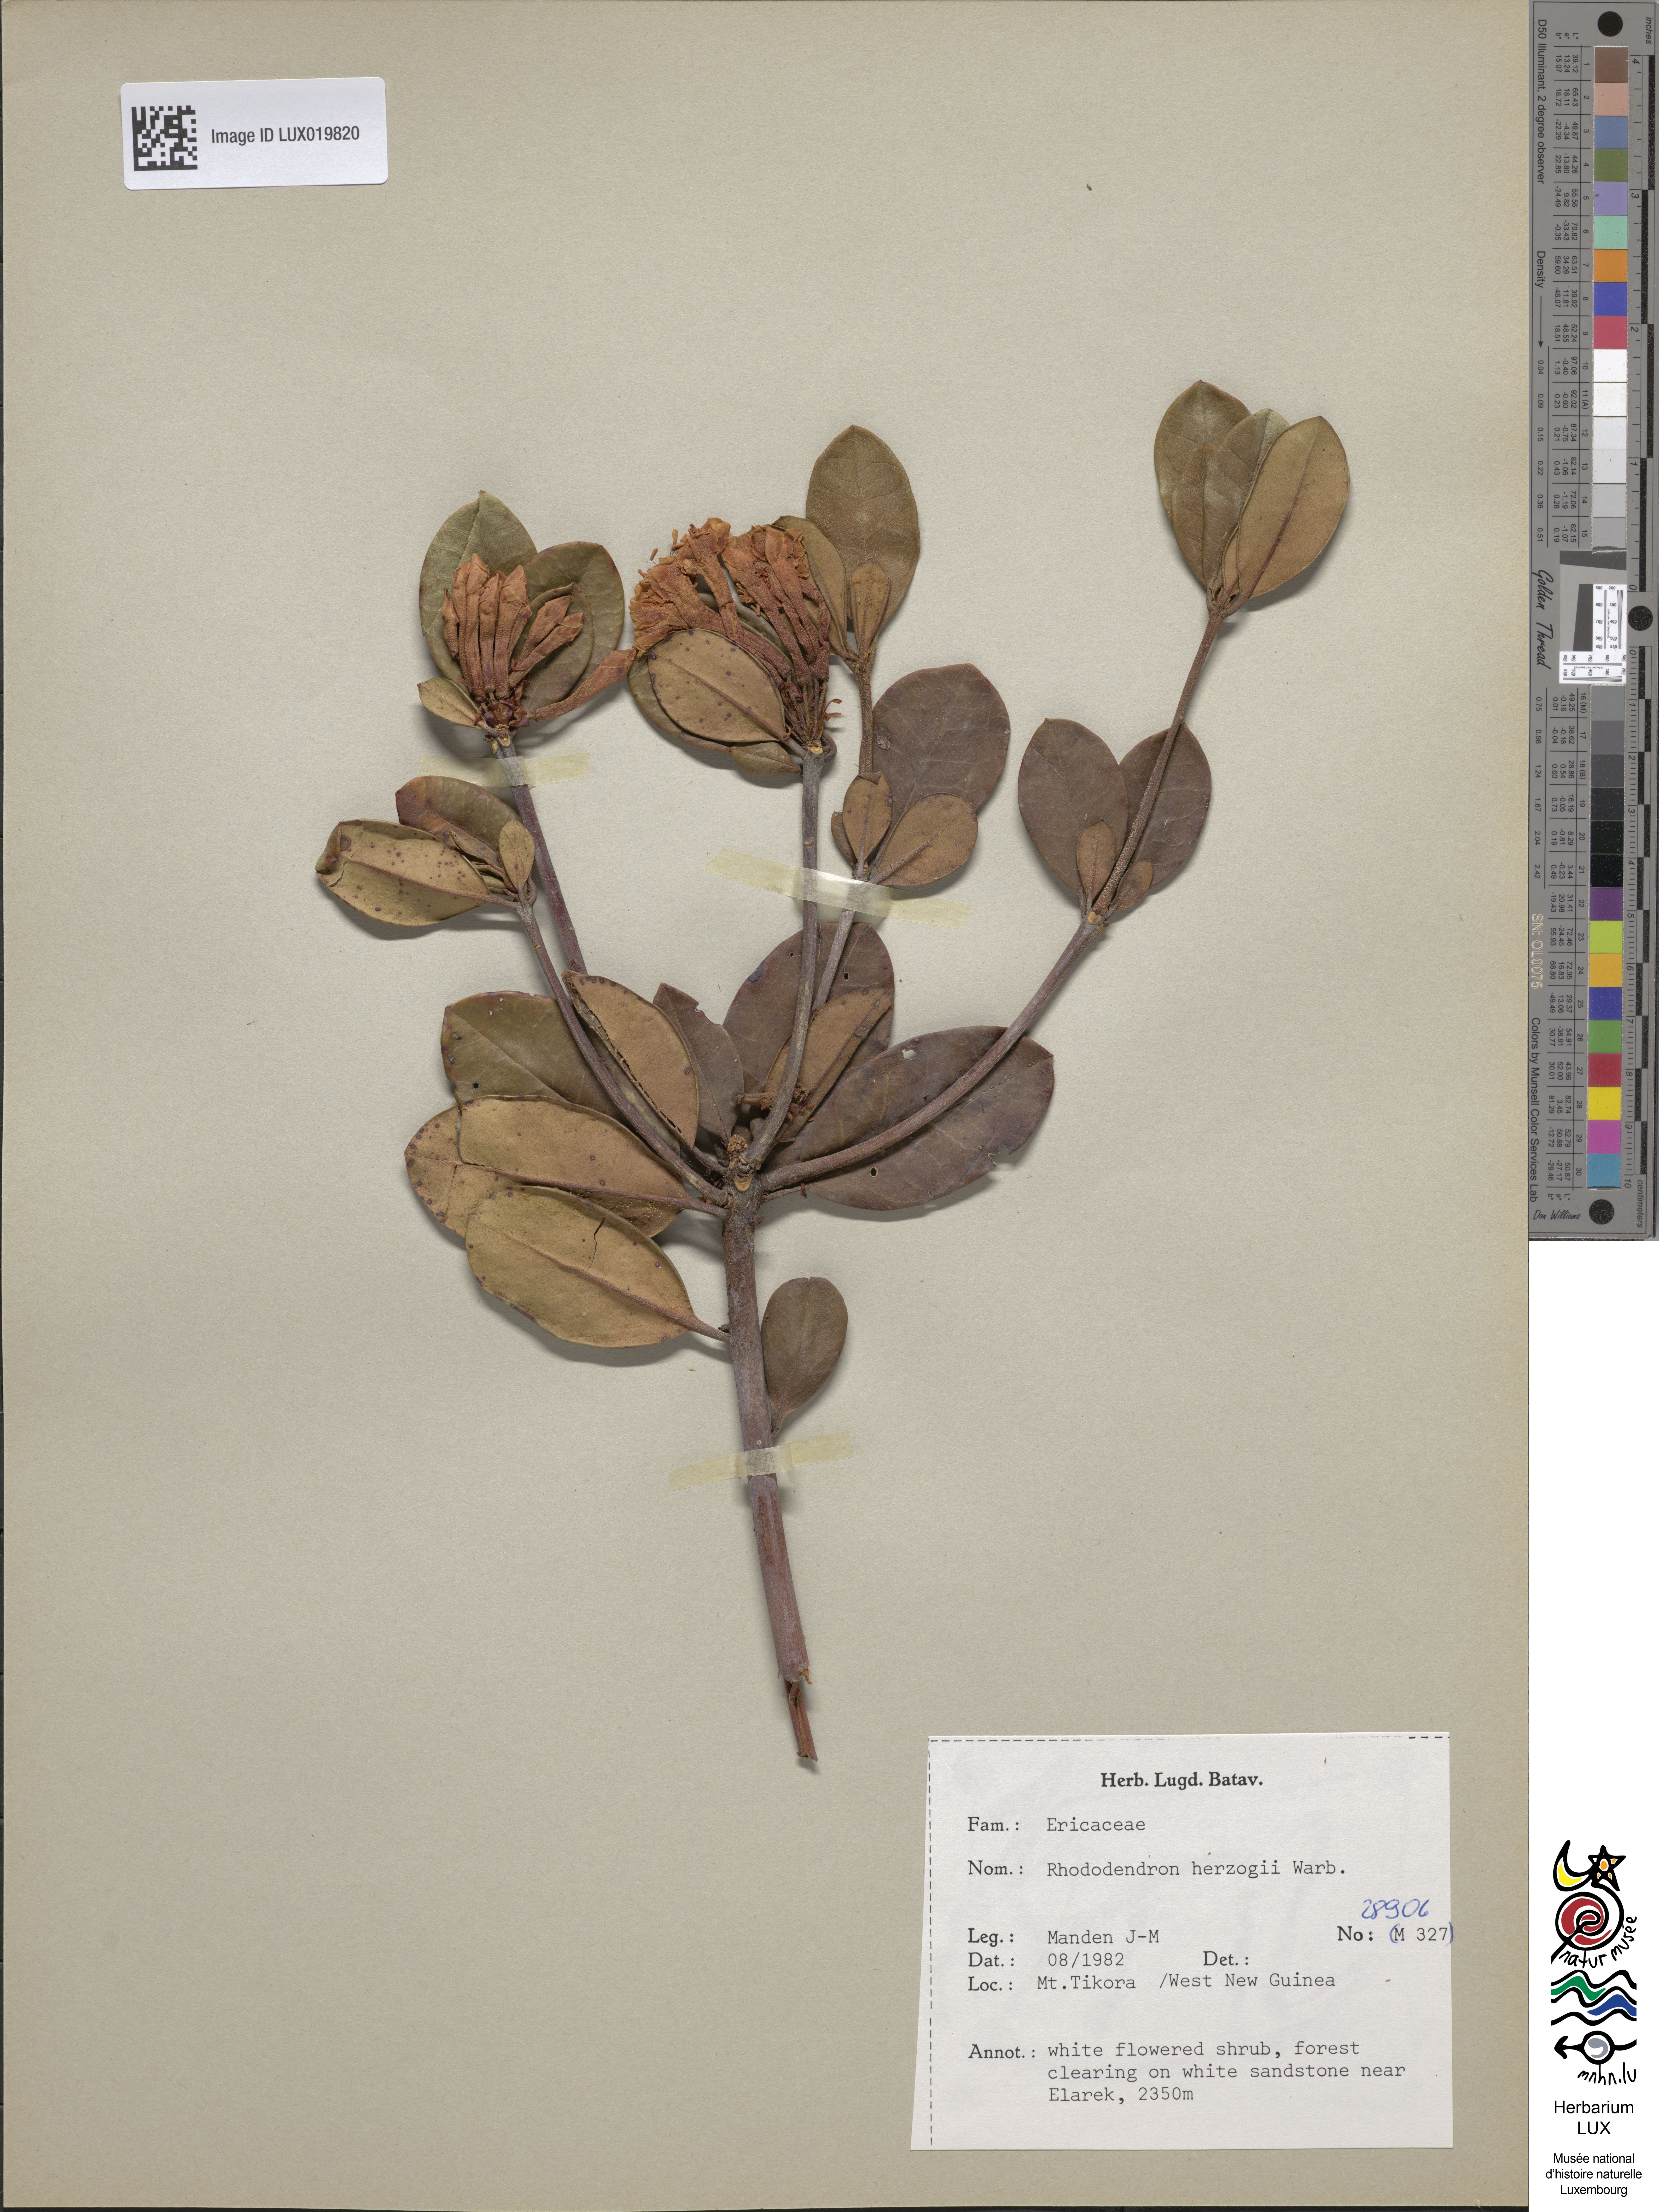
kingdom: Plantae
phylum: Tracheophyta
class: Magnoliopsida
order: Ericales
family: Ericaceae
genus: Rhododendron
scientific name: Rhododendron herzogii
